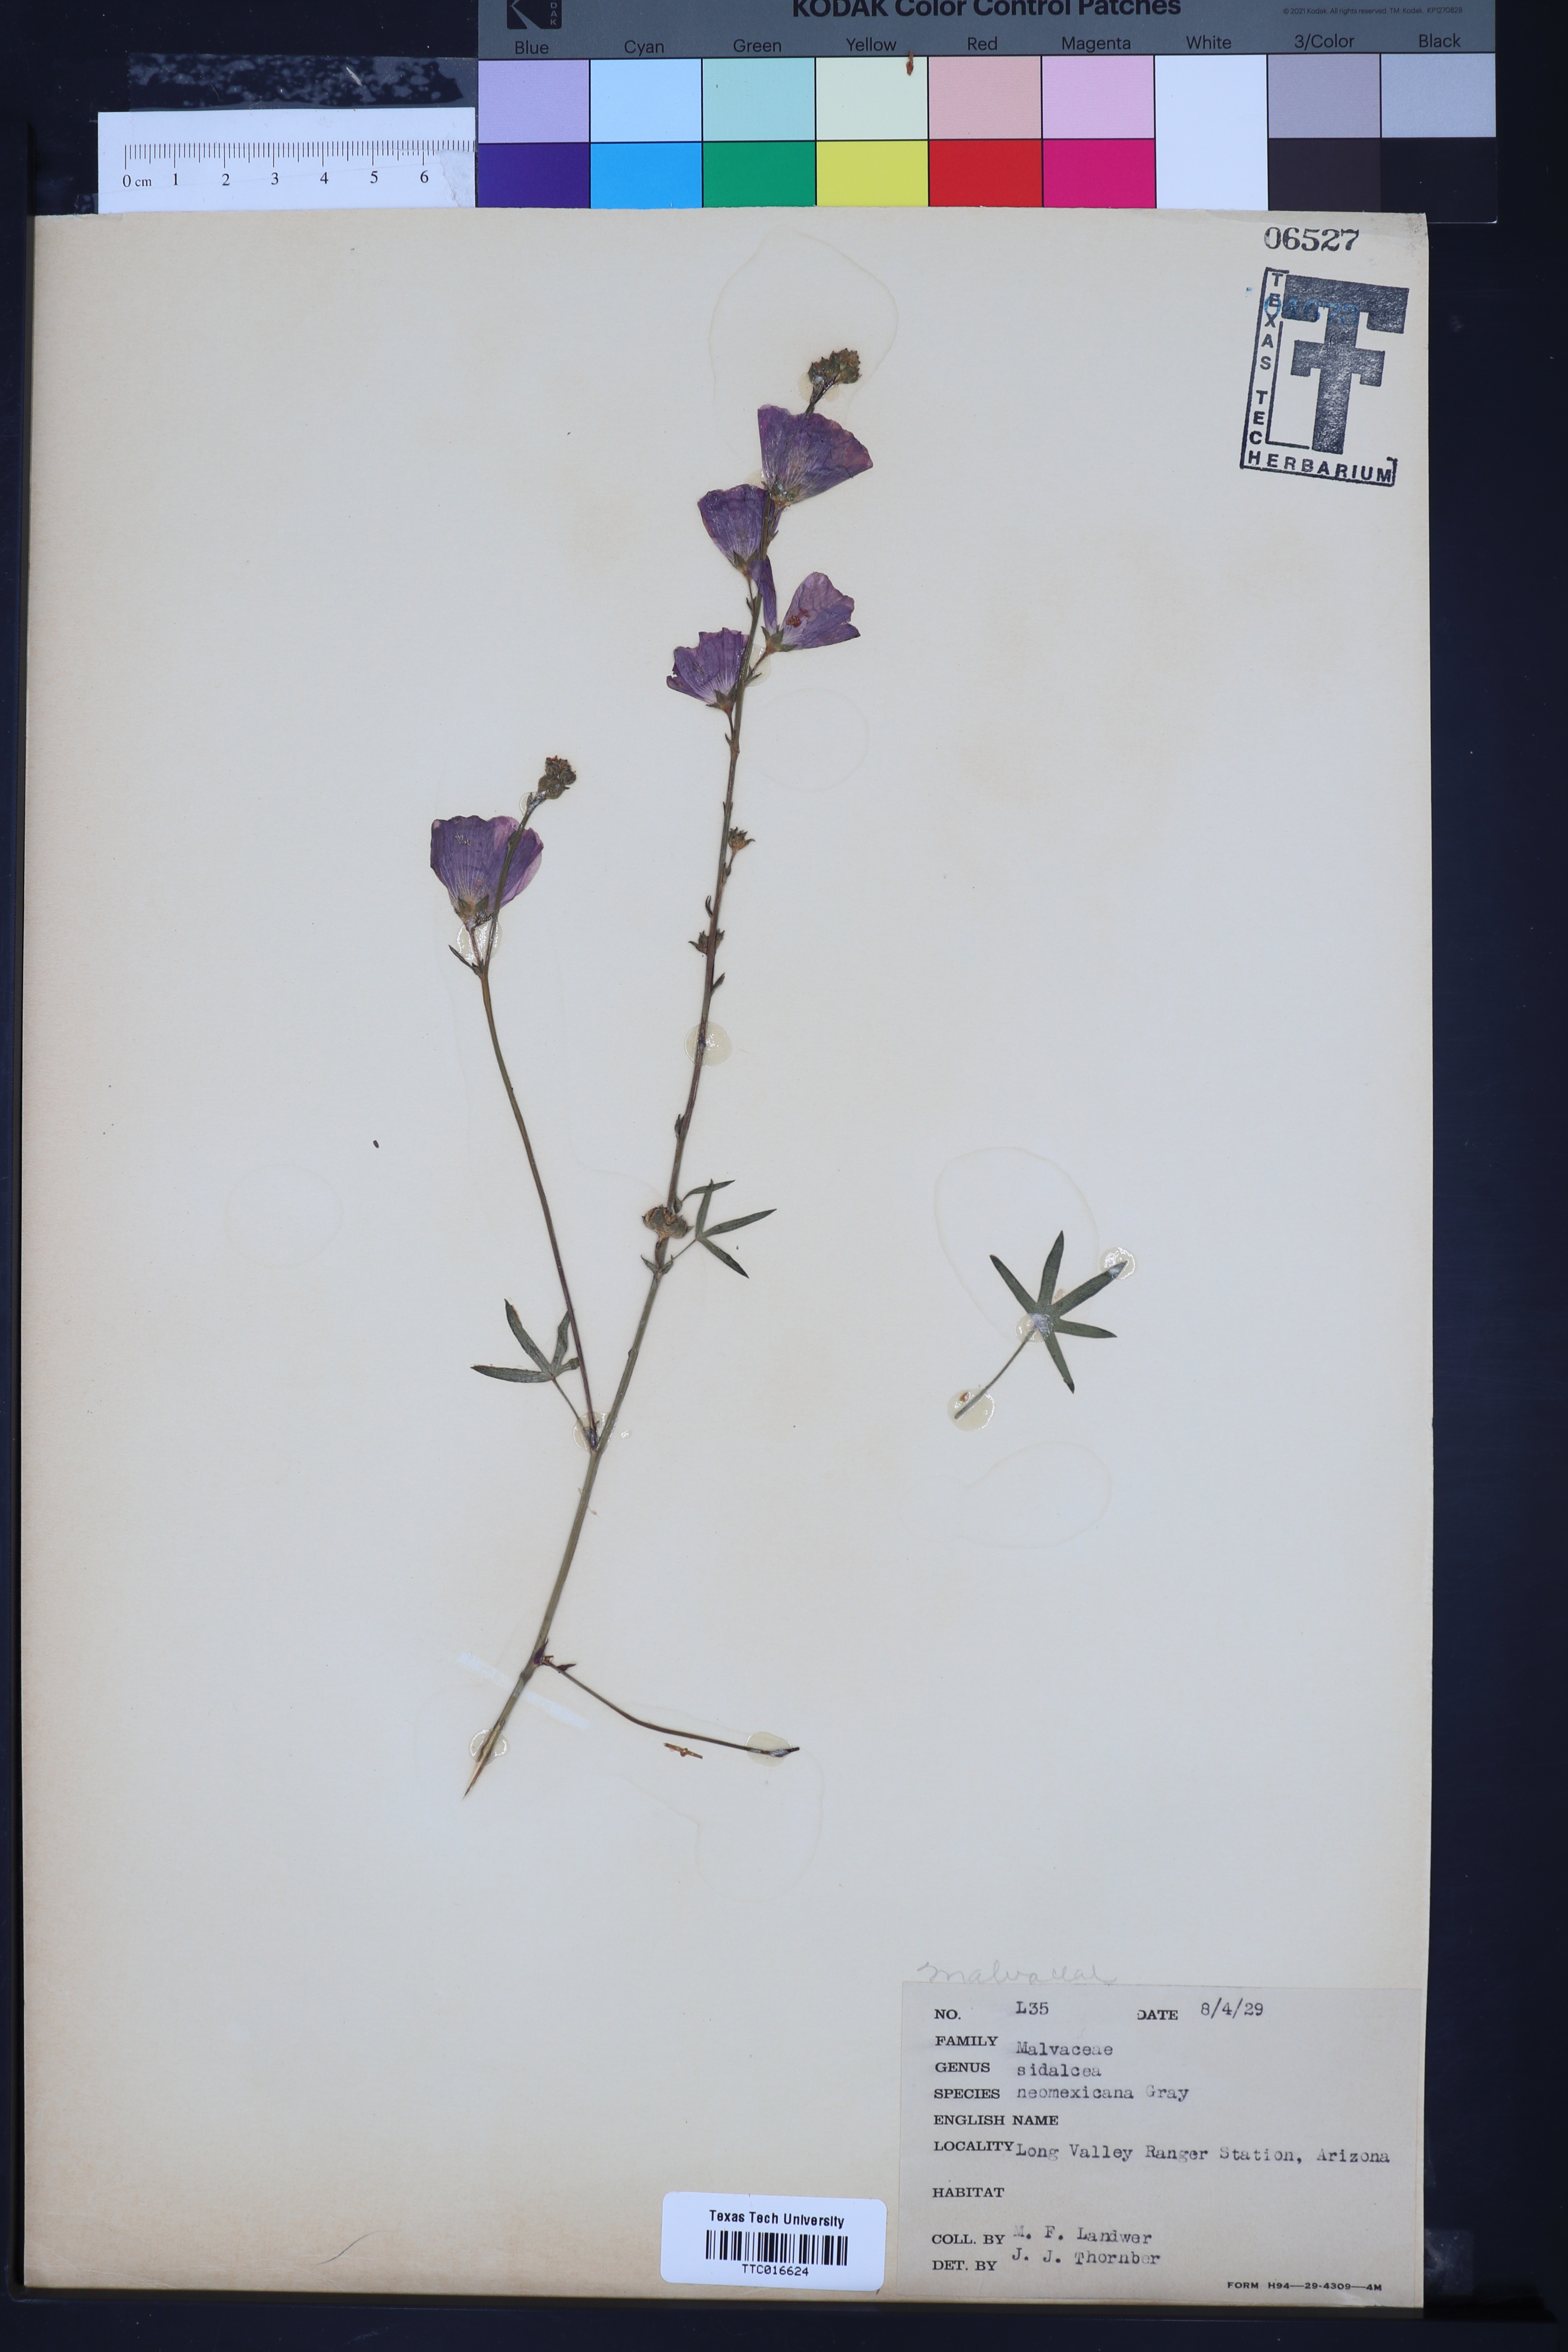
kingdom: Plantae
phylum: Tracheophyta
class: Magnoliopsida
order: Malvales
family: Malvaceae
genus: Sidalcea
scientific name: Sidalcea neomexicana
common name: New mexico checker
